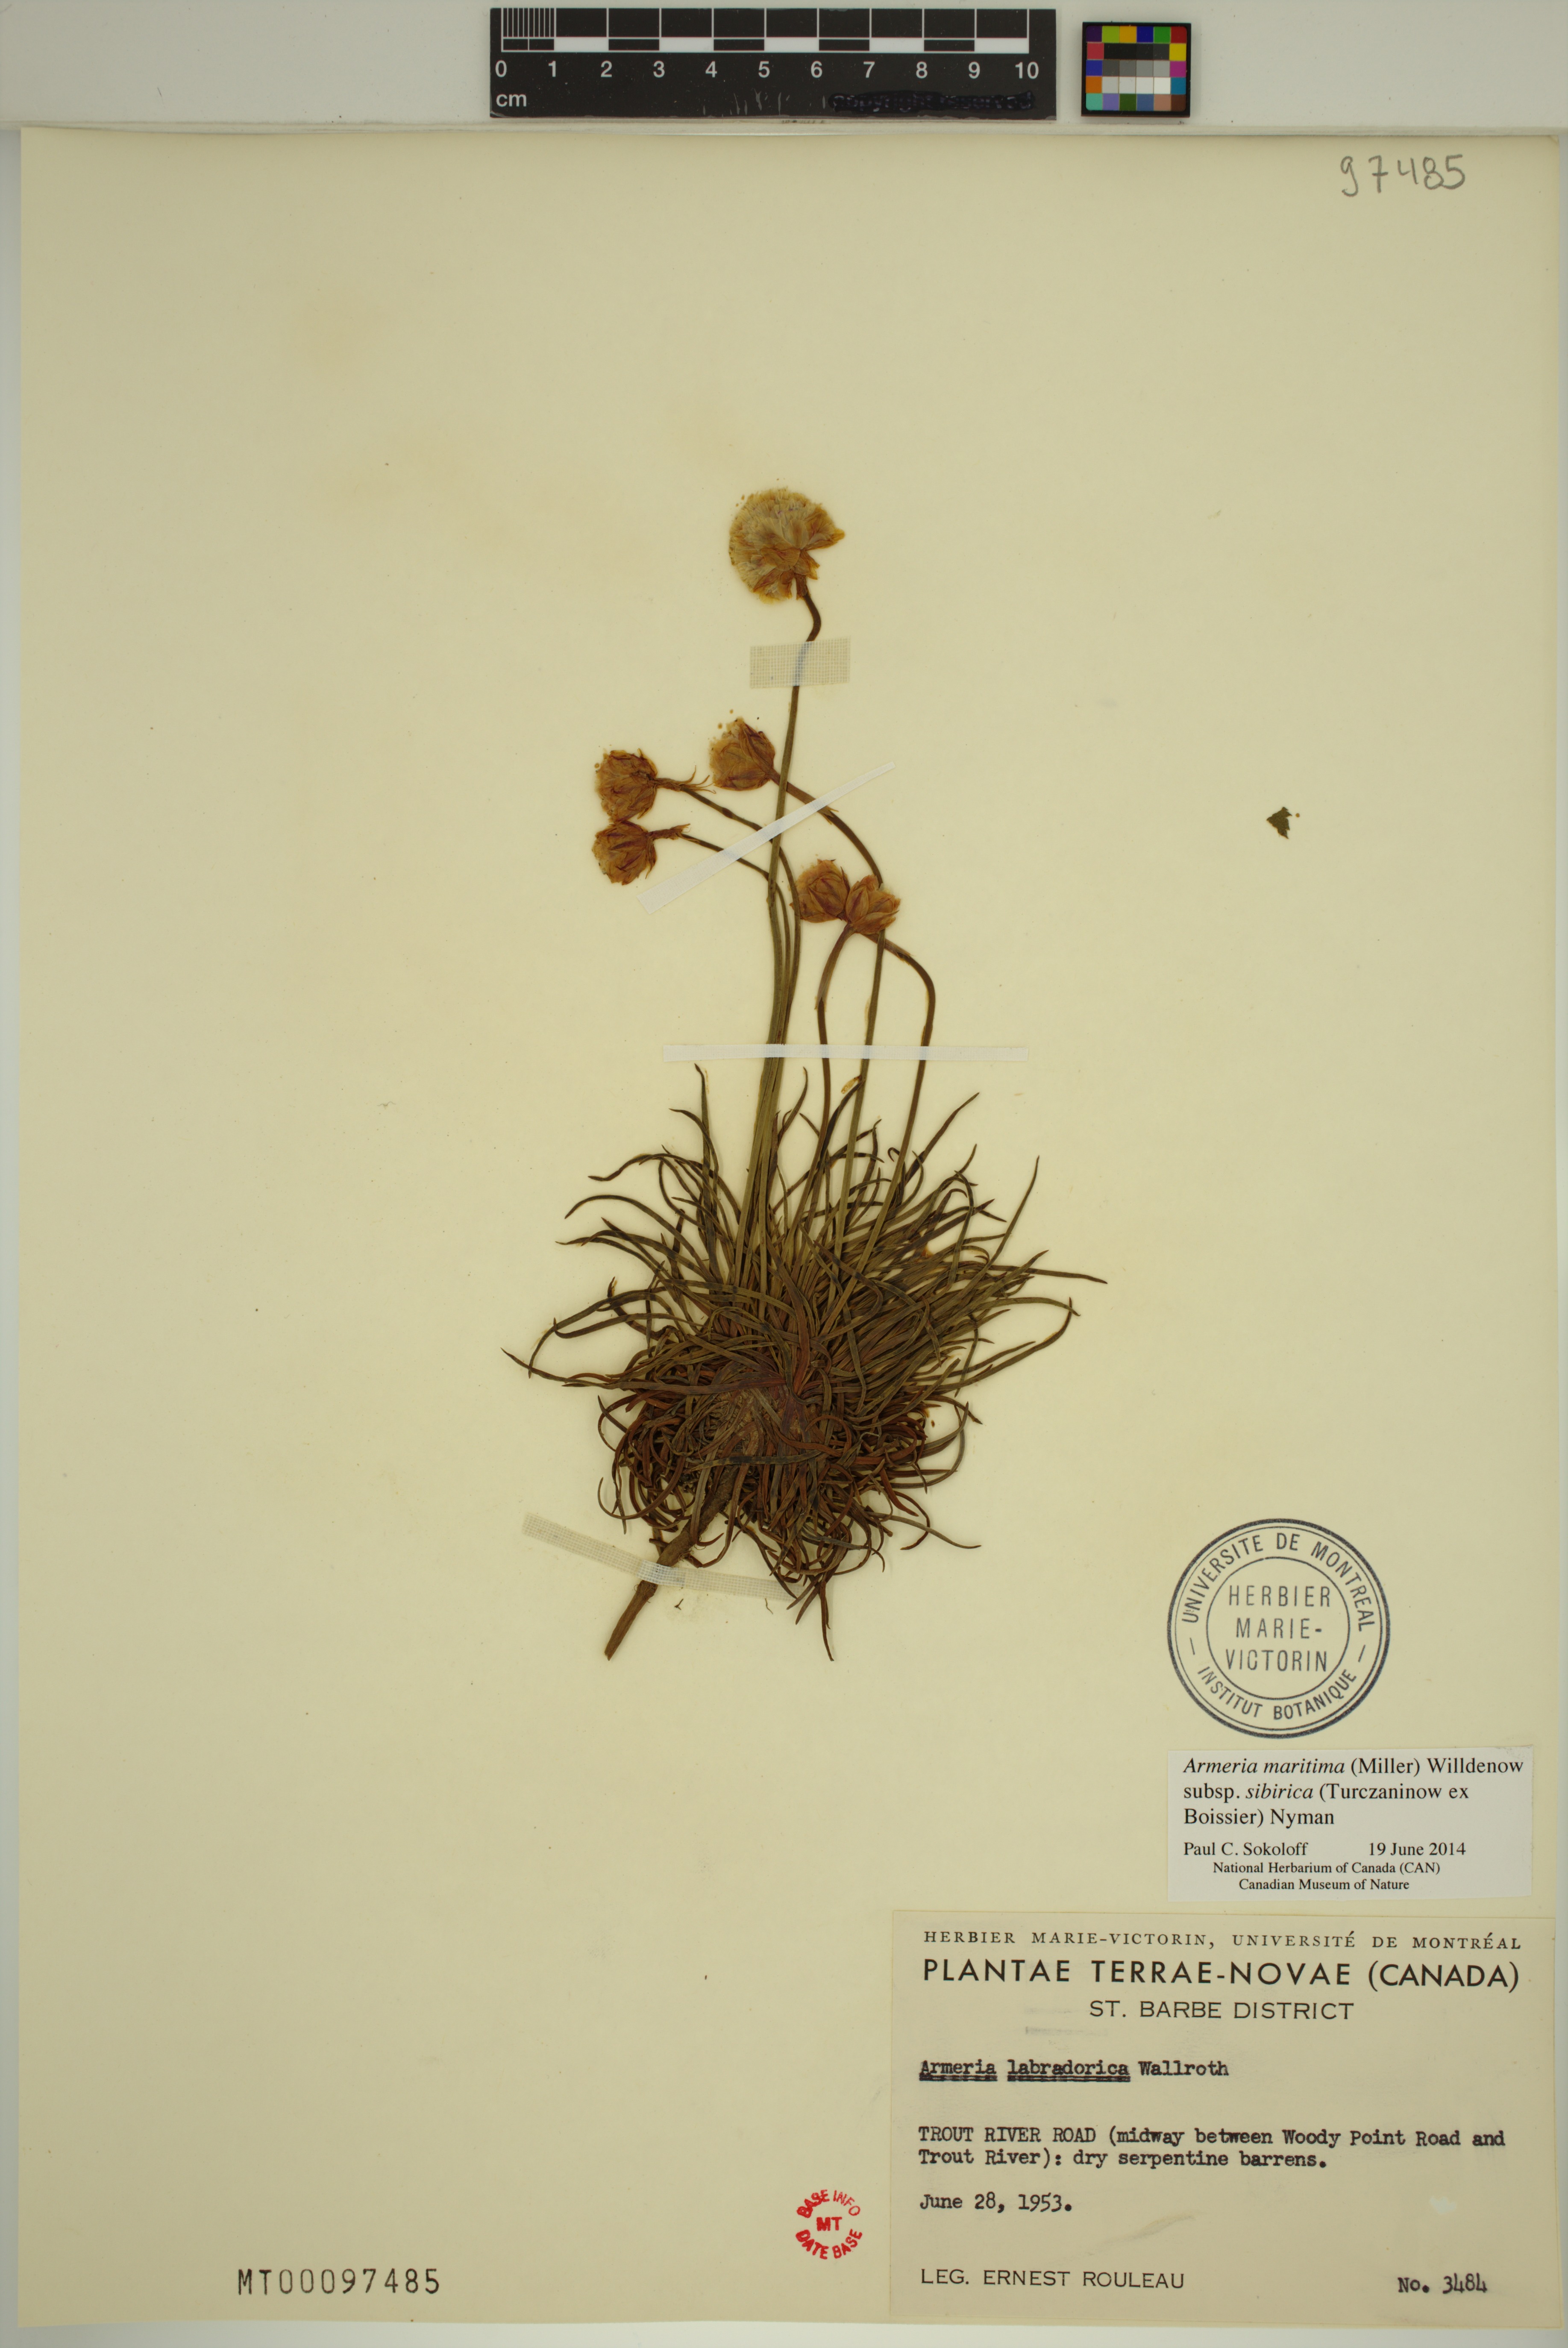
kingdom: Plantae
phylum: Tracheophyta
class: Magnoliopsida
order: Caryophyllales
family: Plumbaginaceae
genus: Armeria
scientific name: Armeria maritima
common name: Thrift
